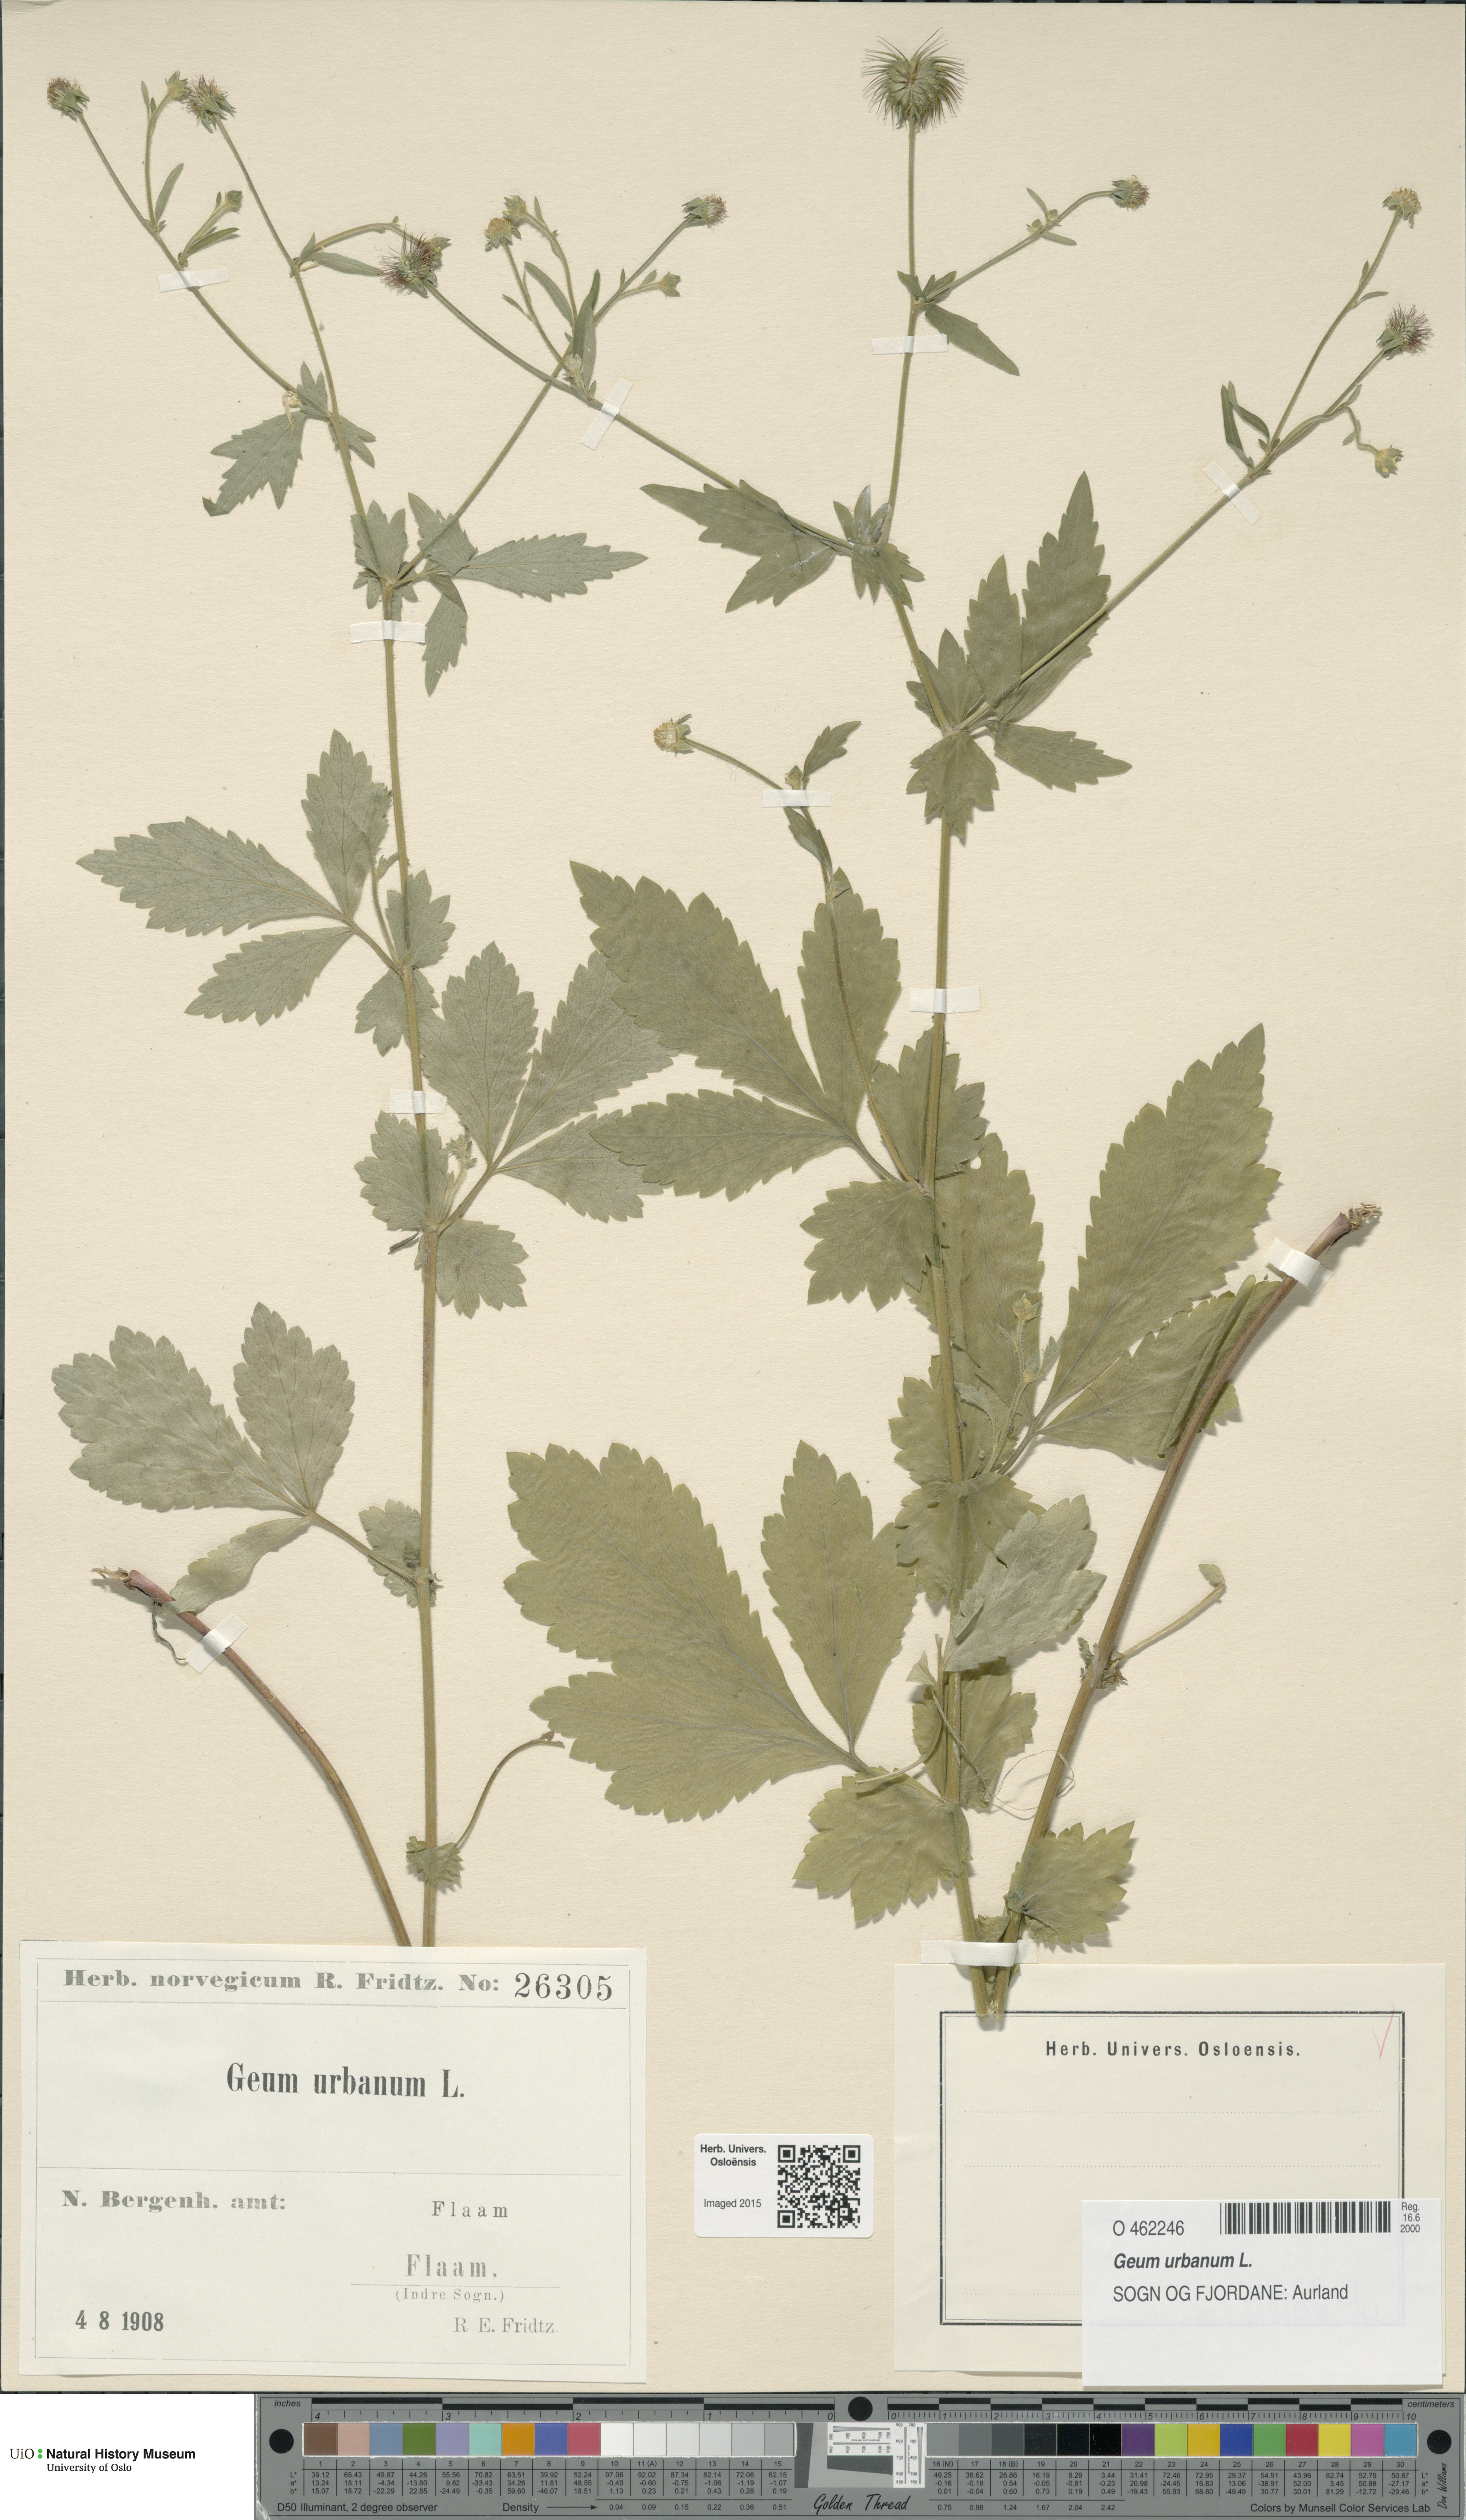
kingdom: Plantae
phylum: Tracheophyta
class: Magnoliopsida
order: Rosales
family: Rosaceae
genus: Geum
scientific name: Geum urbanum
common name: Wood avens
